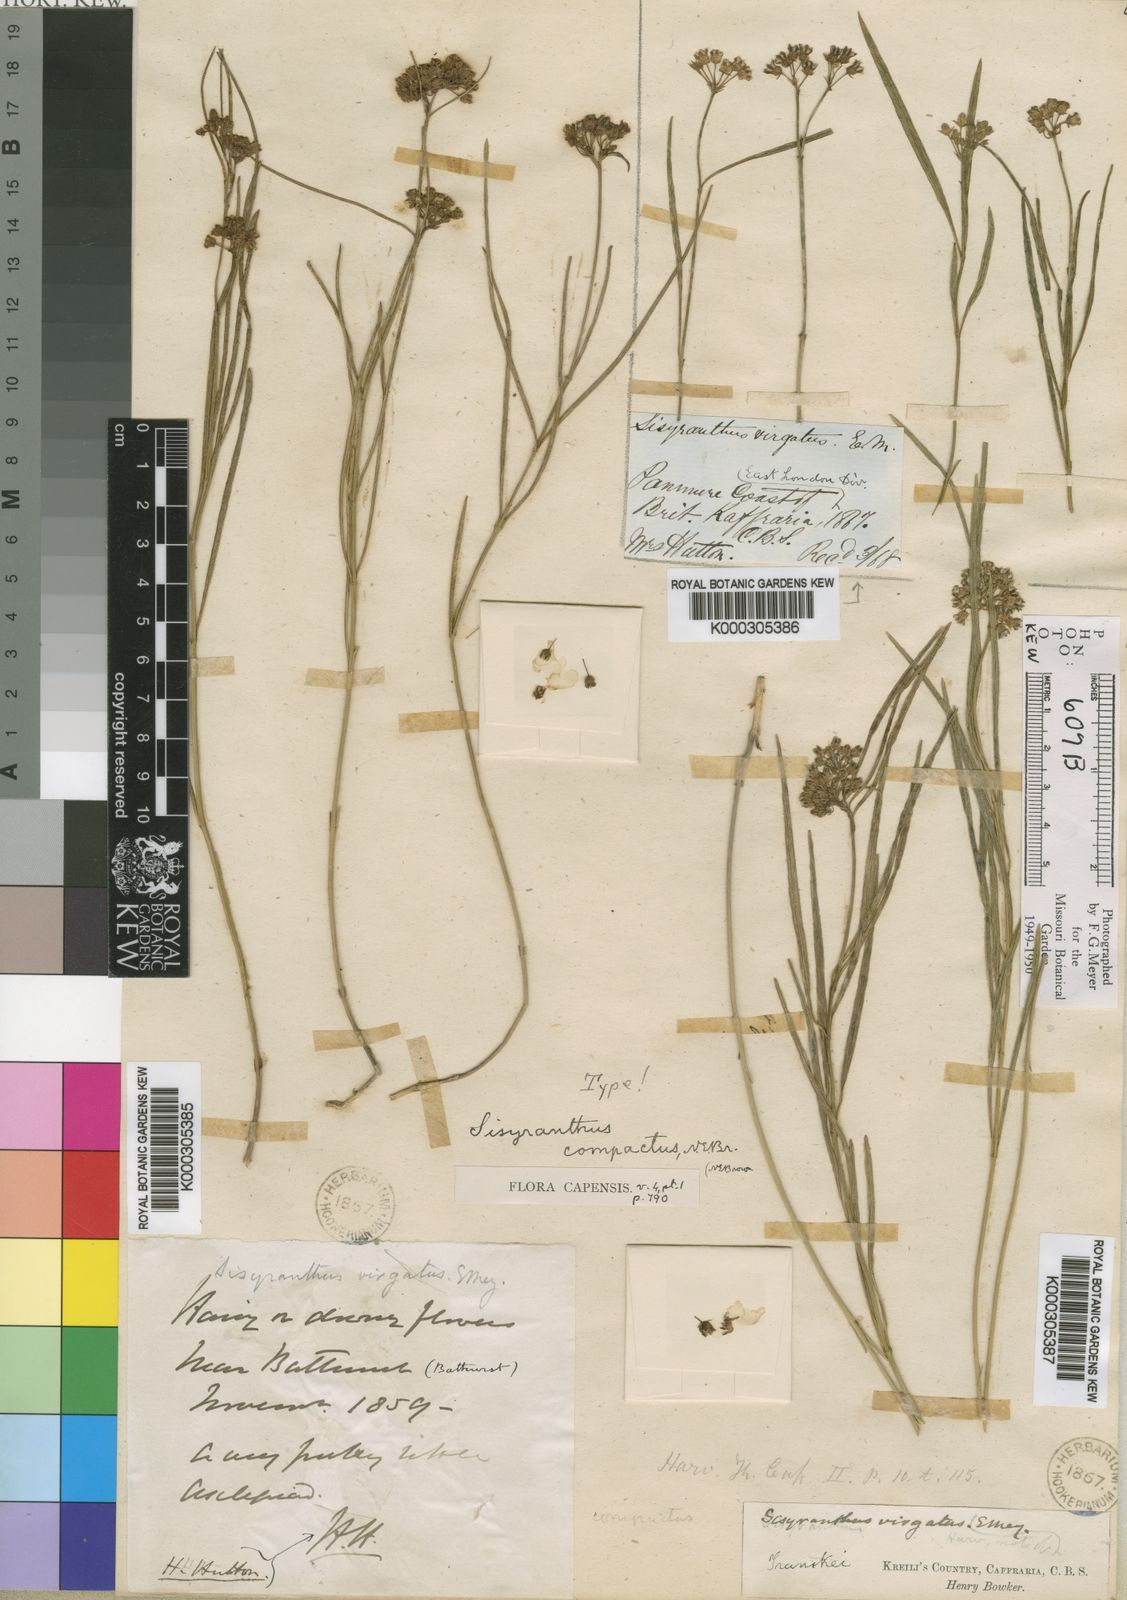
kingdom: Plantae
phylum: Tracheophyta
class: Magnoliopsida
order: Gentianales
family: Apocynaceae
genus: Sisyranthus
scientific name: Sisyranthus compactus
